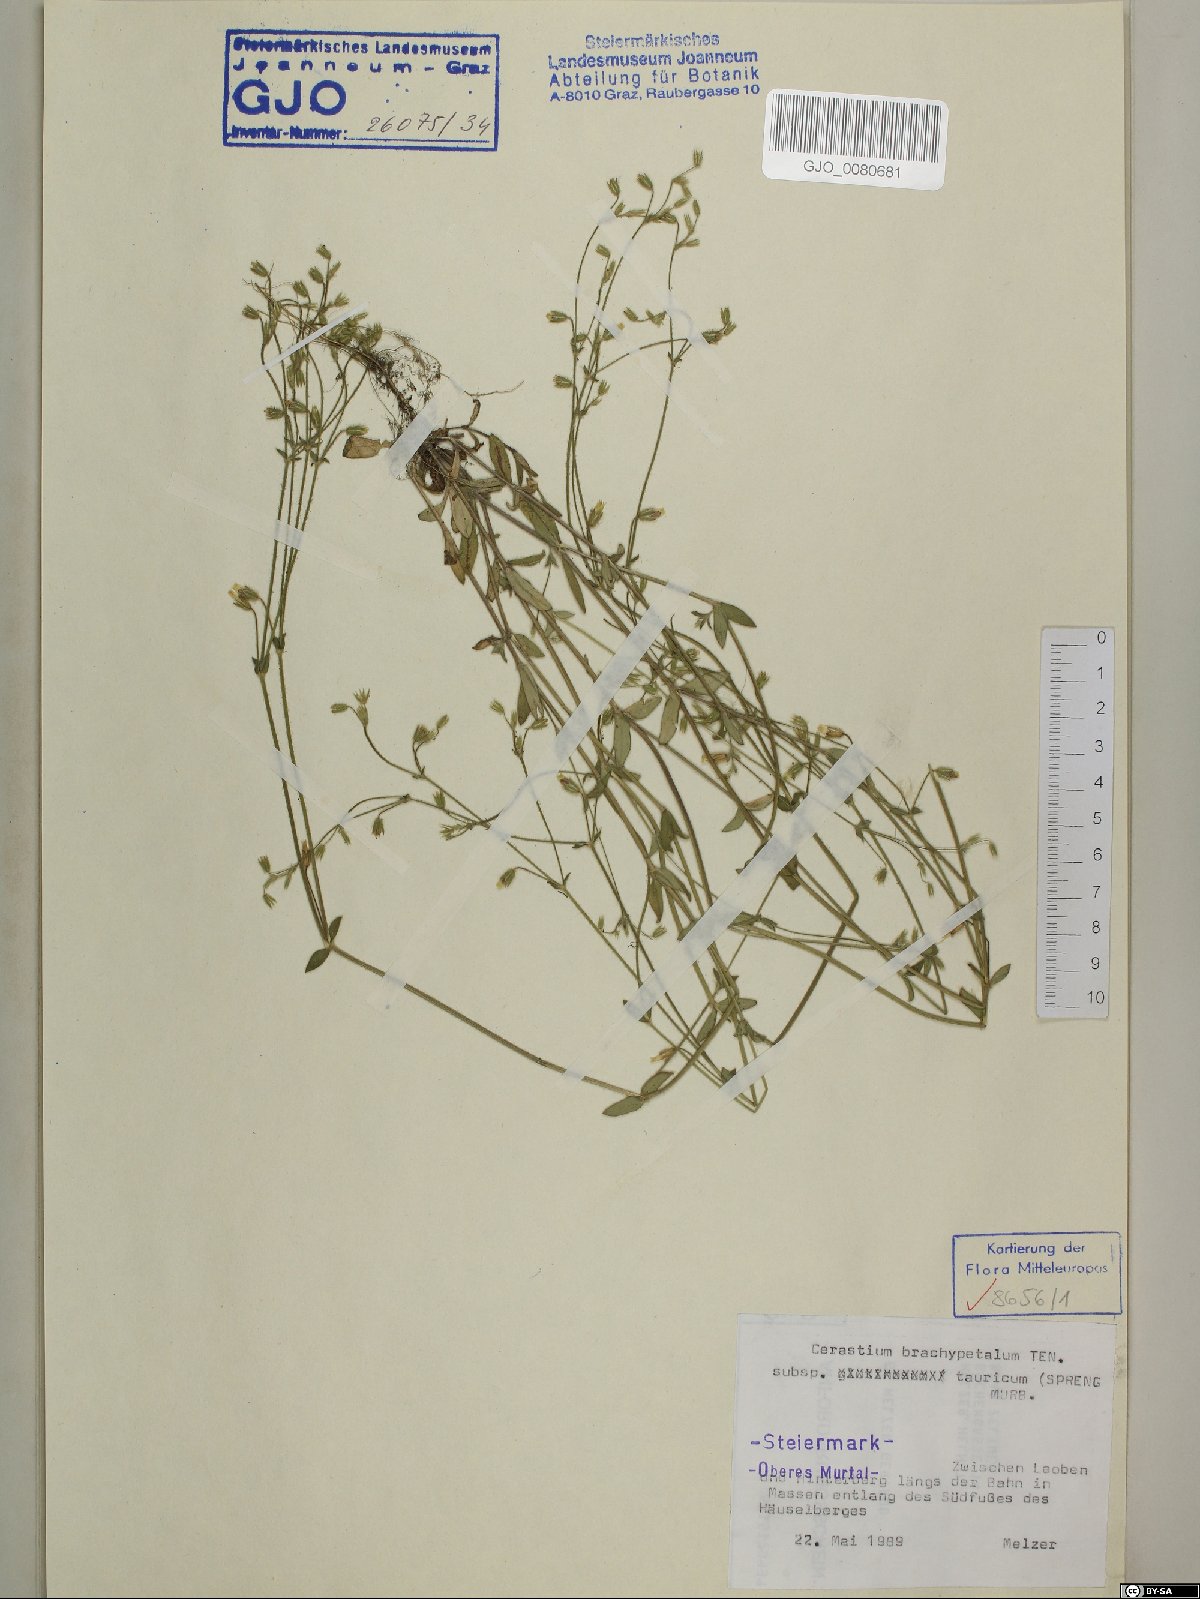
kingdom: Plantae
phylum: Tracheophyta
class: Magnoliopsida
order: Caryophyllales
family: Caryophyllaceae
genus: Cerastium
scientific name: Cerastium brachypetalum
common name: Grey mouse-ear
